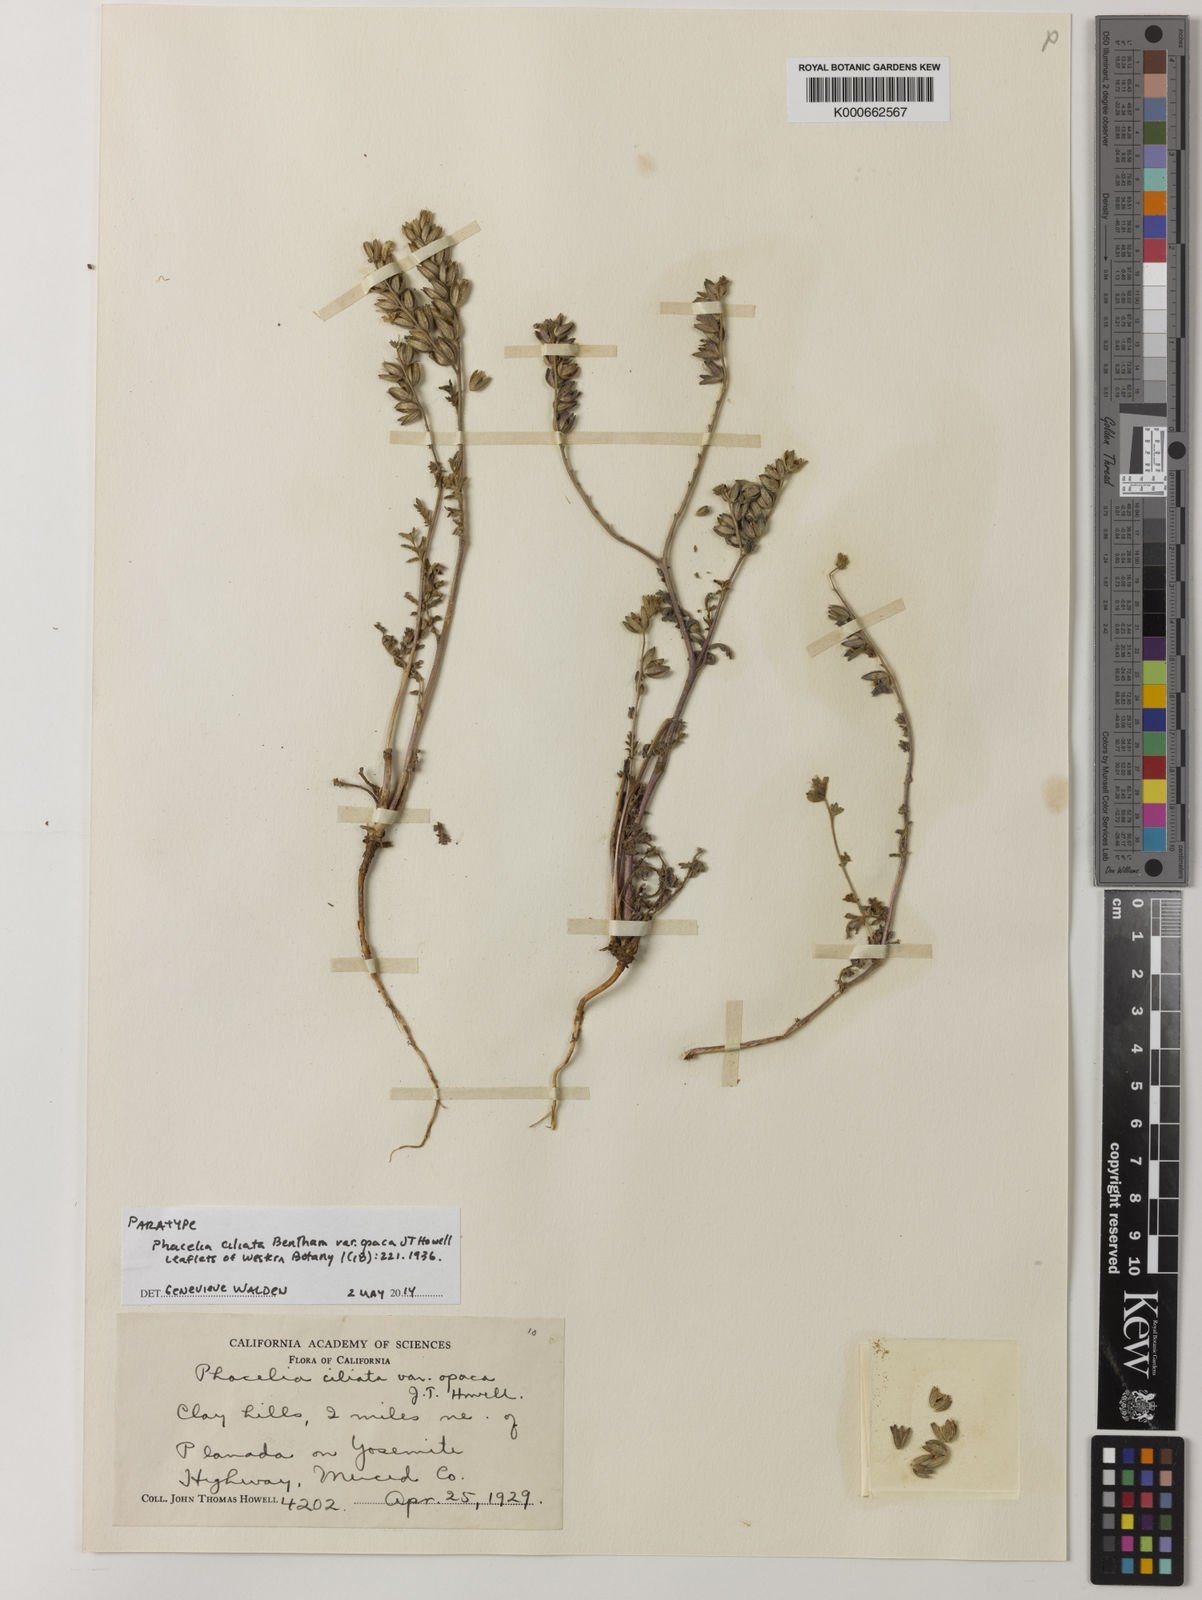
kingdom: Plantae
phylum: Tracheophyta
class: Magnoliopsida
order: Boraginales
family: Hydrophyllaceae
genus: Phacelia
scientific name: Phacelia ciliata
